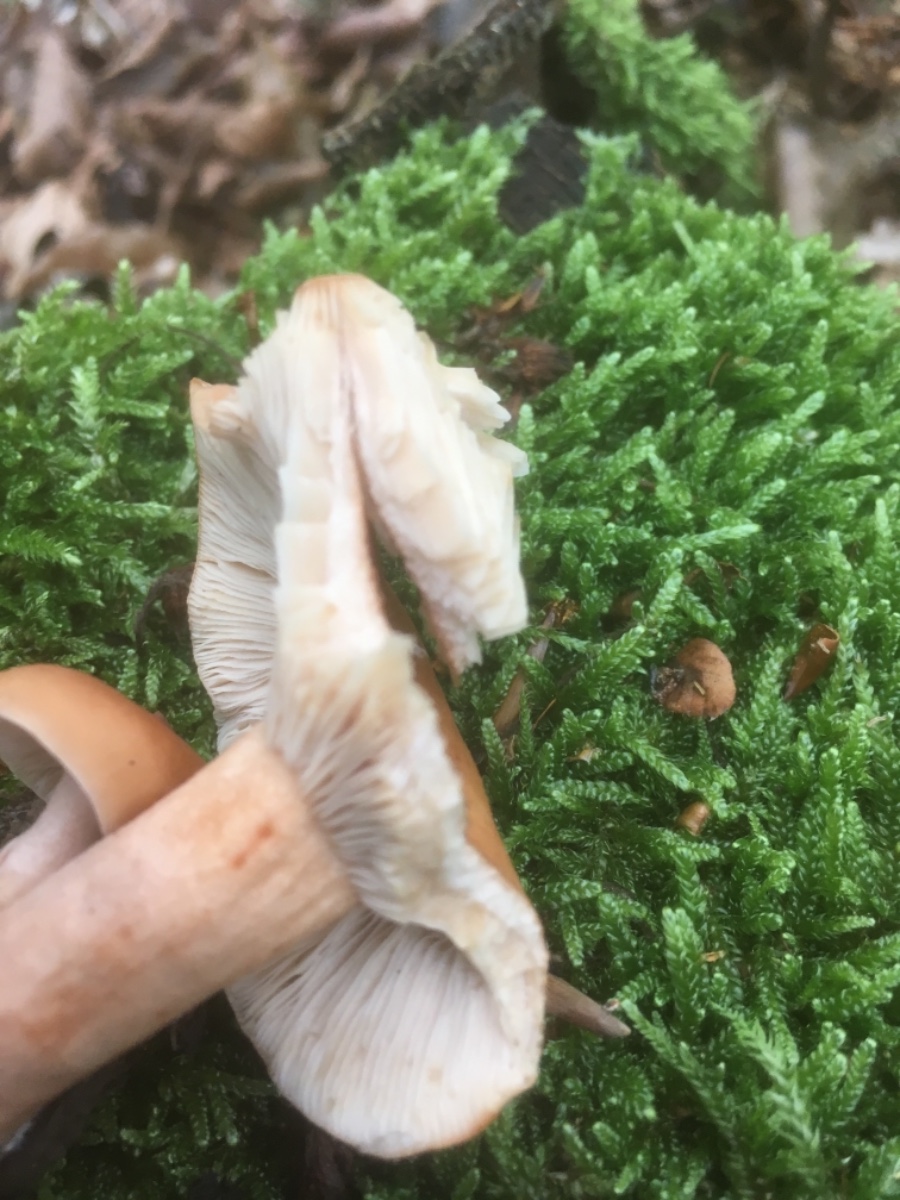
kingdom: Fungi
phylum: Basidiomycota
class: Agaricomycetes
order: Russulales
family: Russulaceae
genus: Lactarius
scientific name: Lactarius subdulcis
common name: sødlig mælkehat
